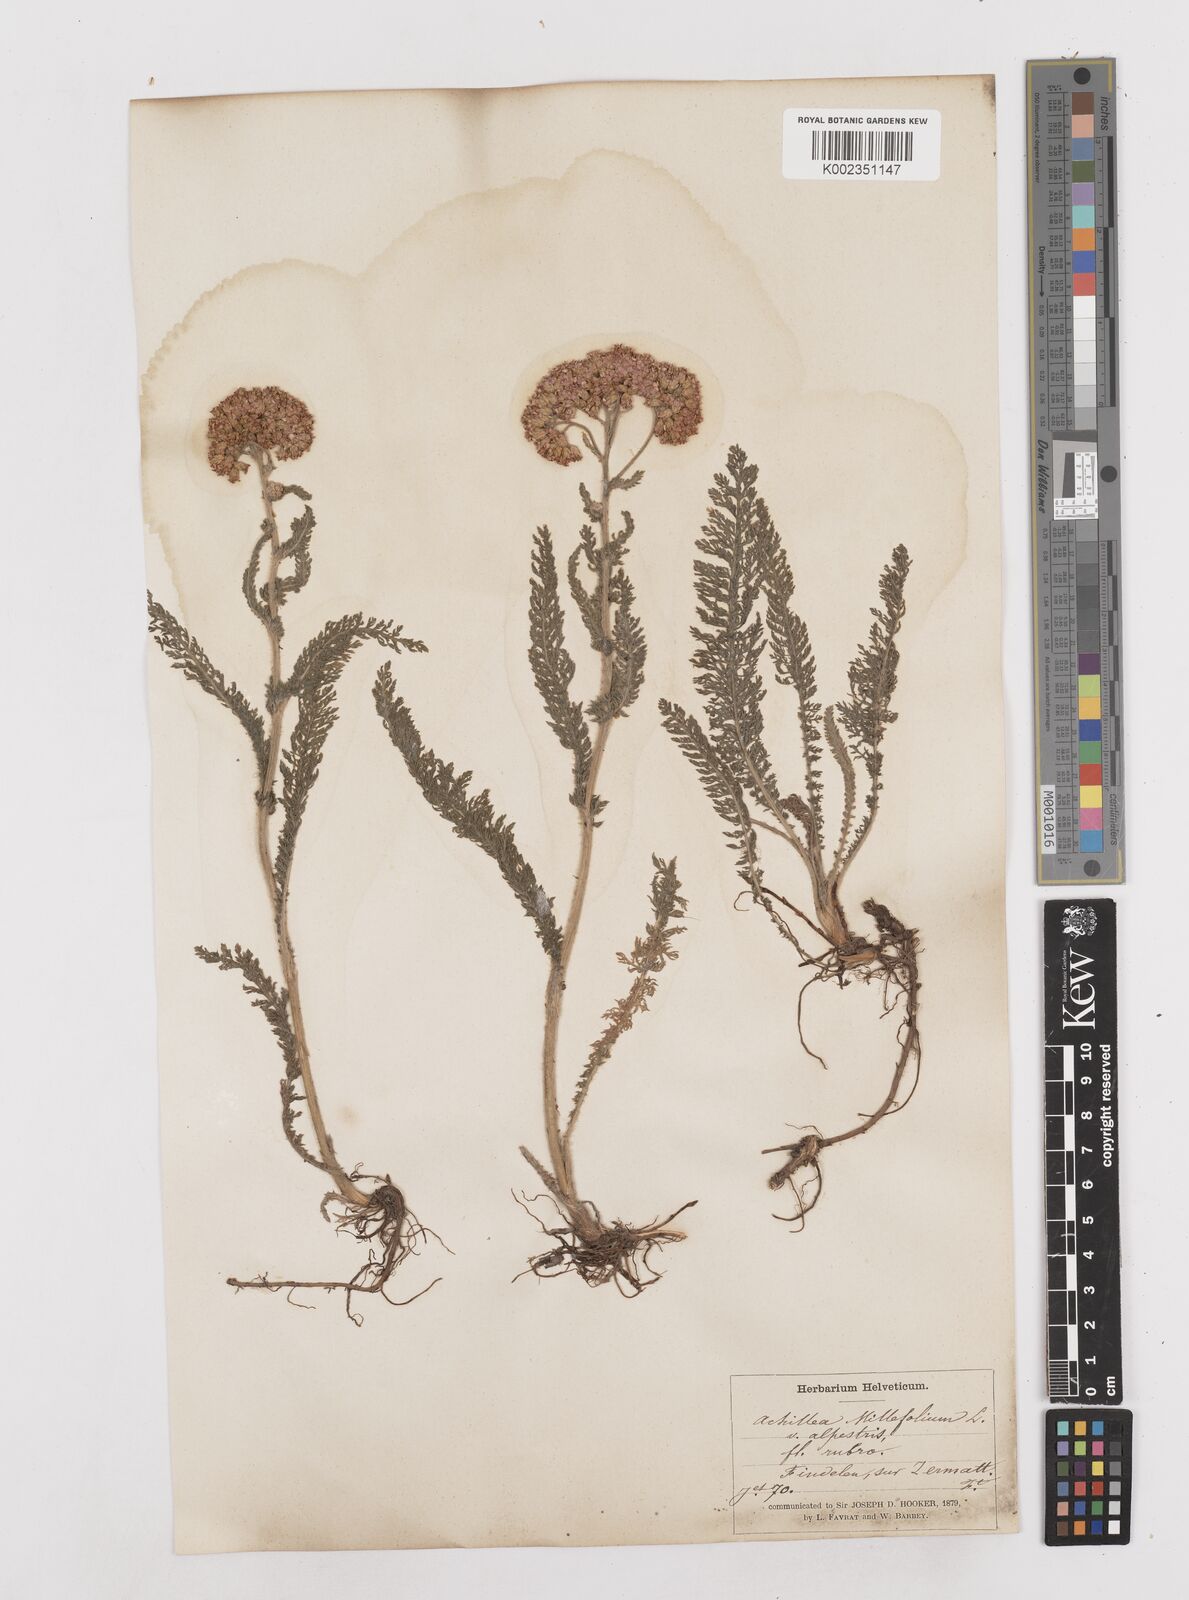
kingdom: Plantae
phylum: Tracheophyta
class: Magnoliopsida
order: Asterales
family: Asteraceae
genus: Achillea
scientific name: Achillea millefolium
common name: Yarrow
